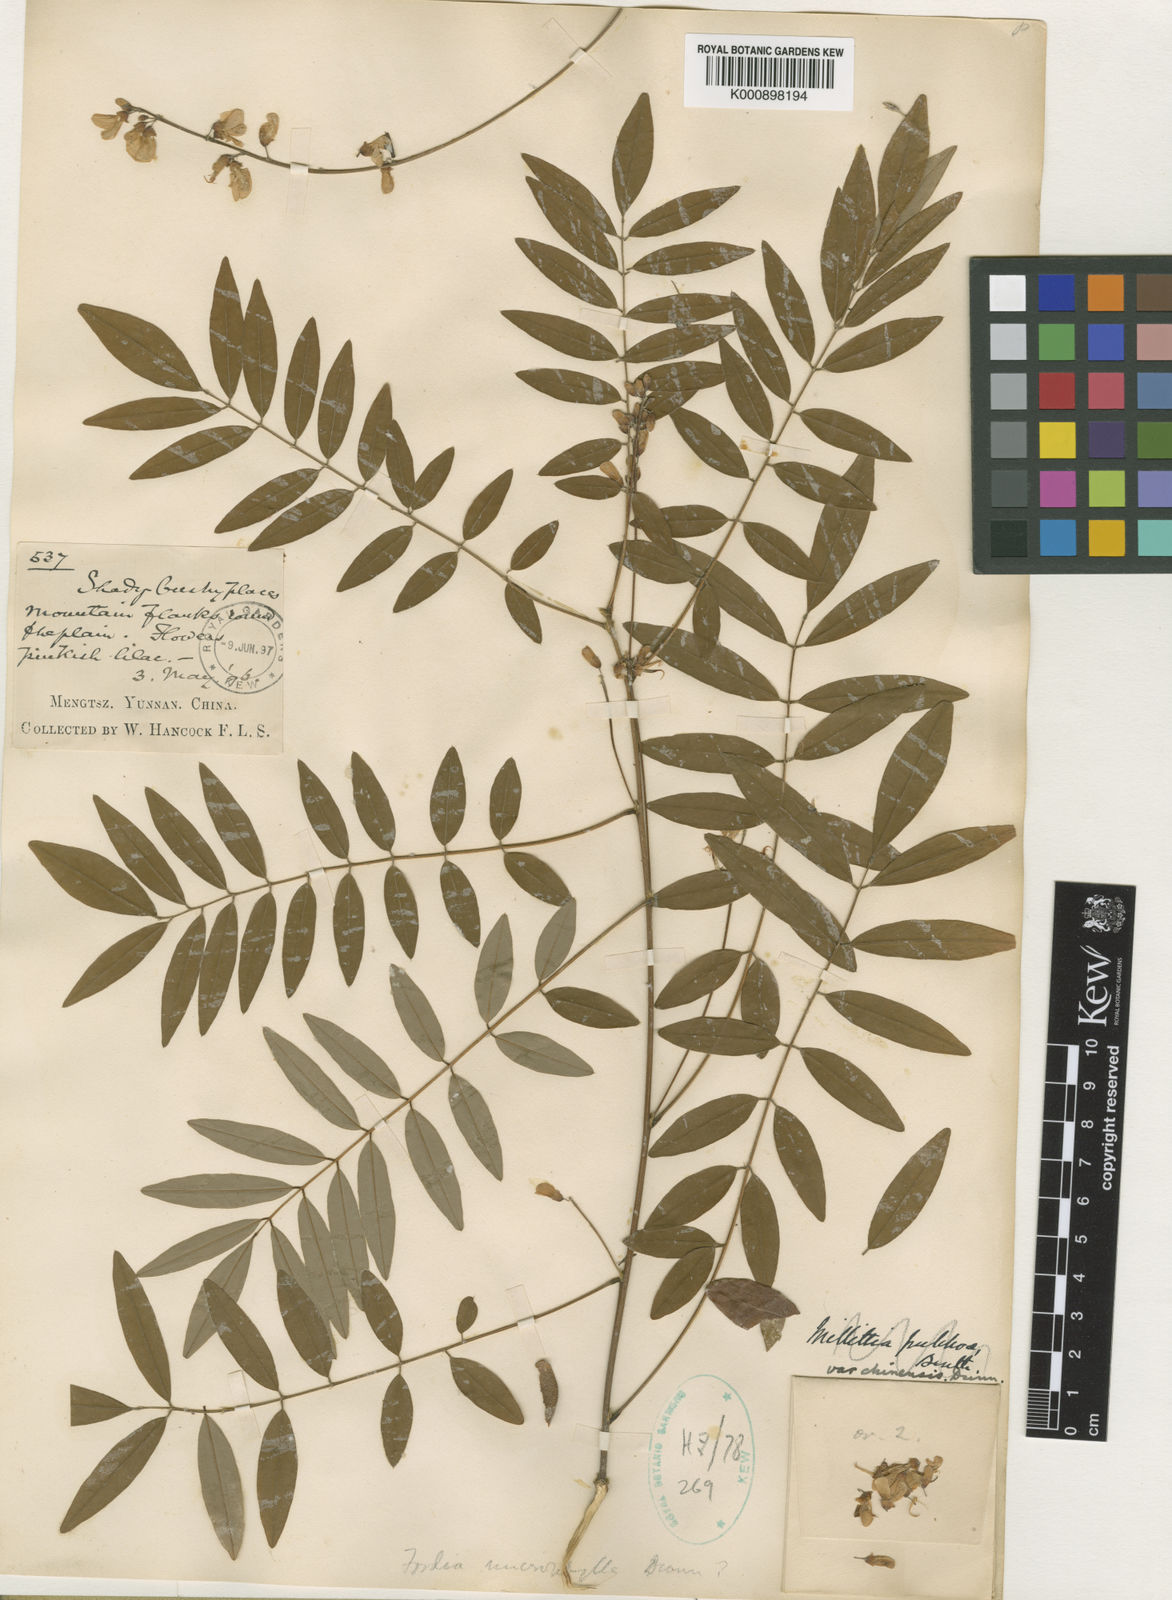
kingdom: Plantae
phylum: Tracheophyta
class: Magnoliopsida
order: Fabales
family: Fabaceae
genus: Millettia
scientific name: Millettia pulchra
